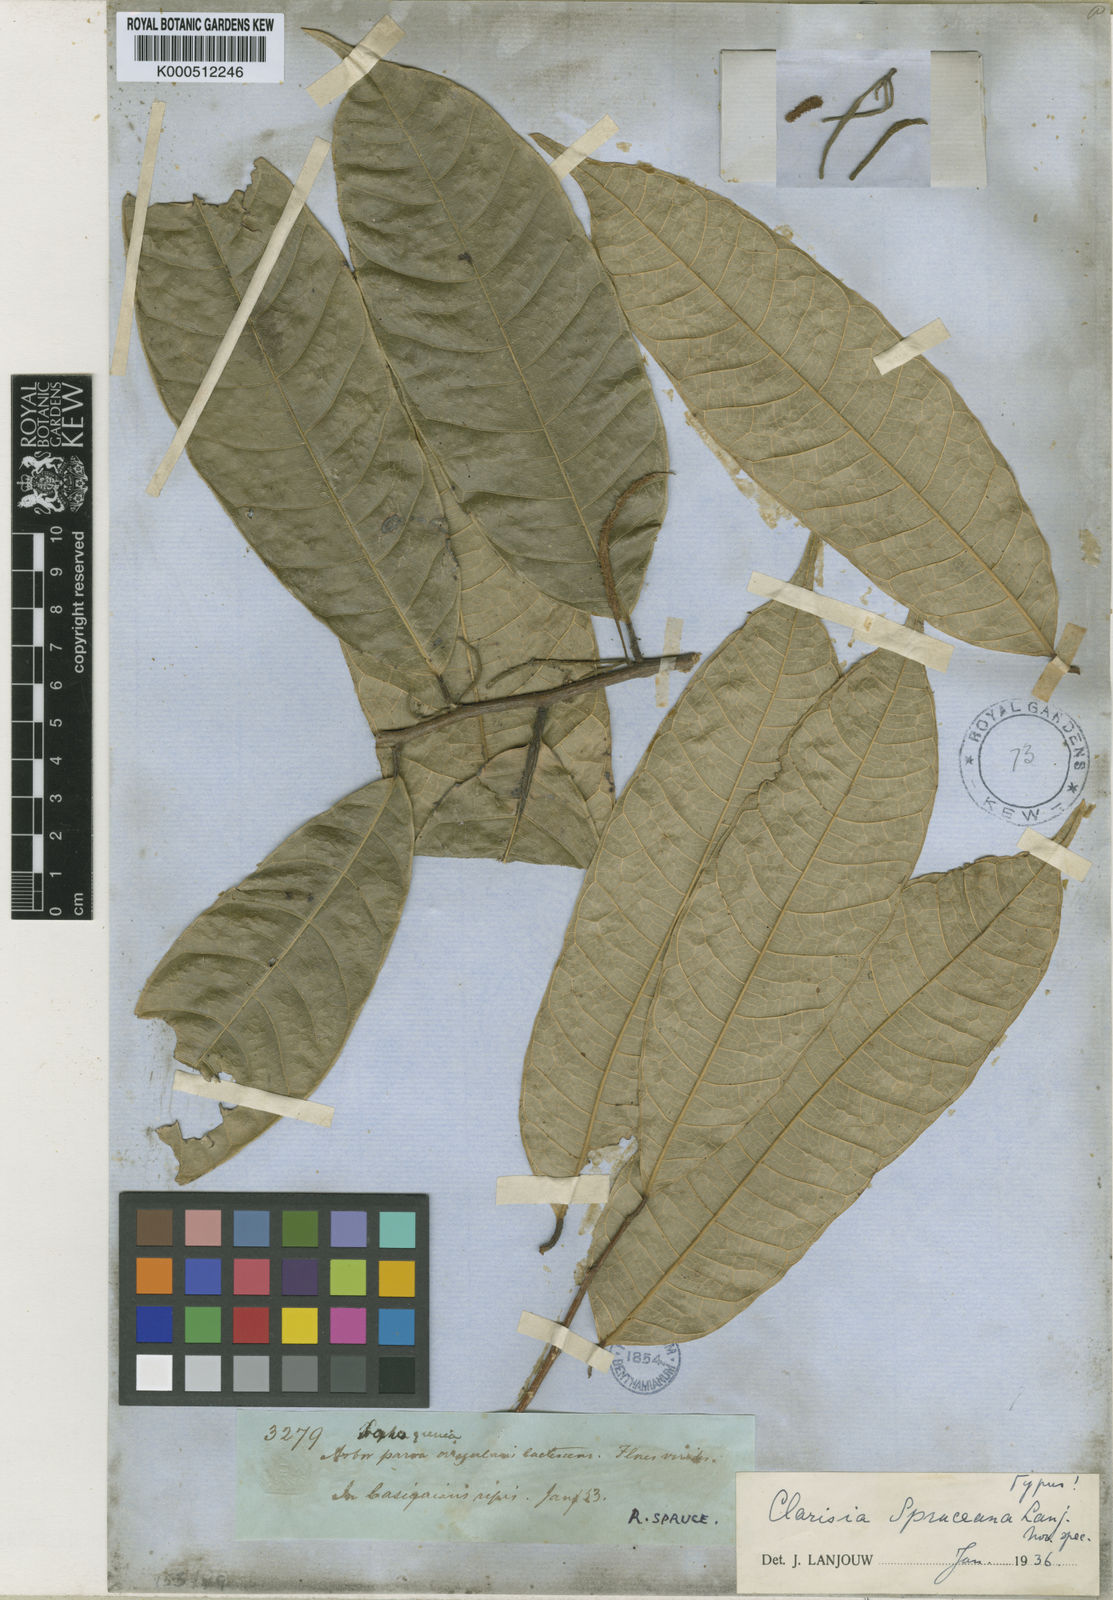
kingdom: Plantae
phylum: Tracheophyta
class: Magnoliopsida
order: Rosales
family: Moraceae
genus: Clarisia
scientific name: Clarisia ilicifolia
